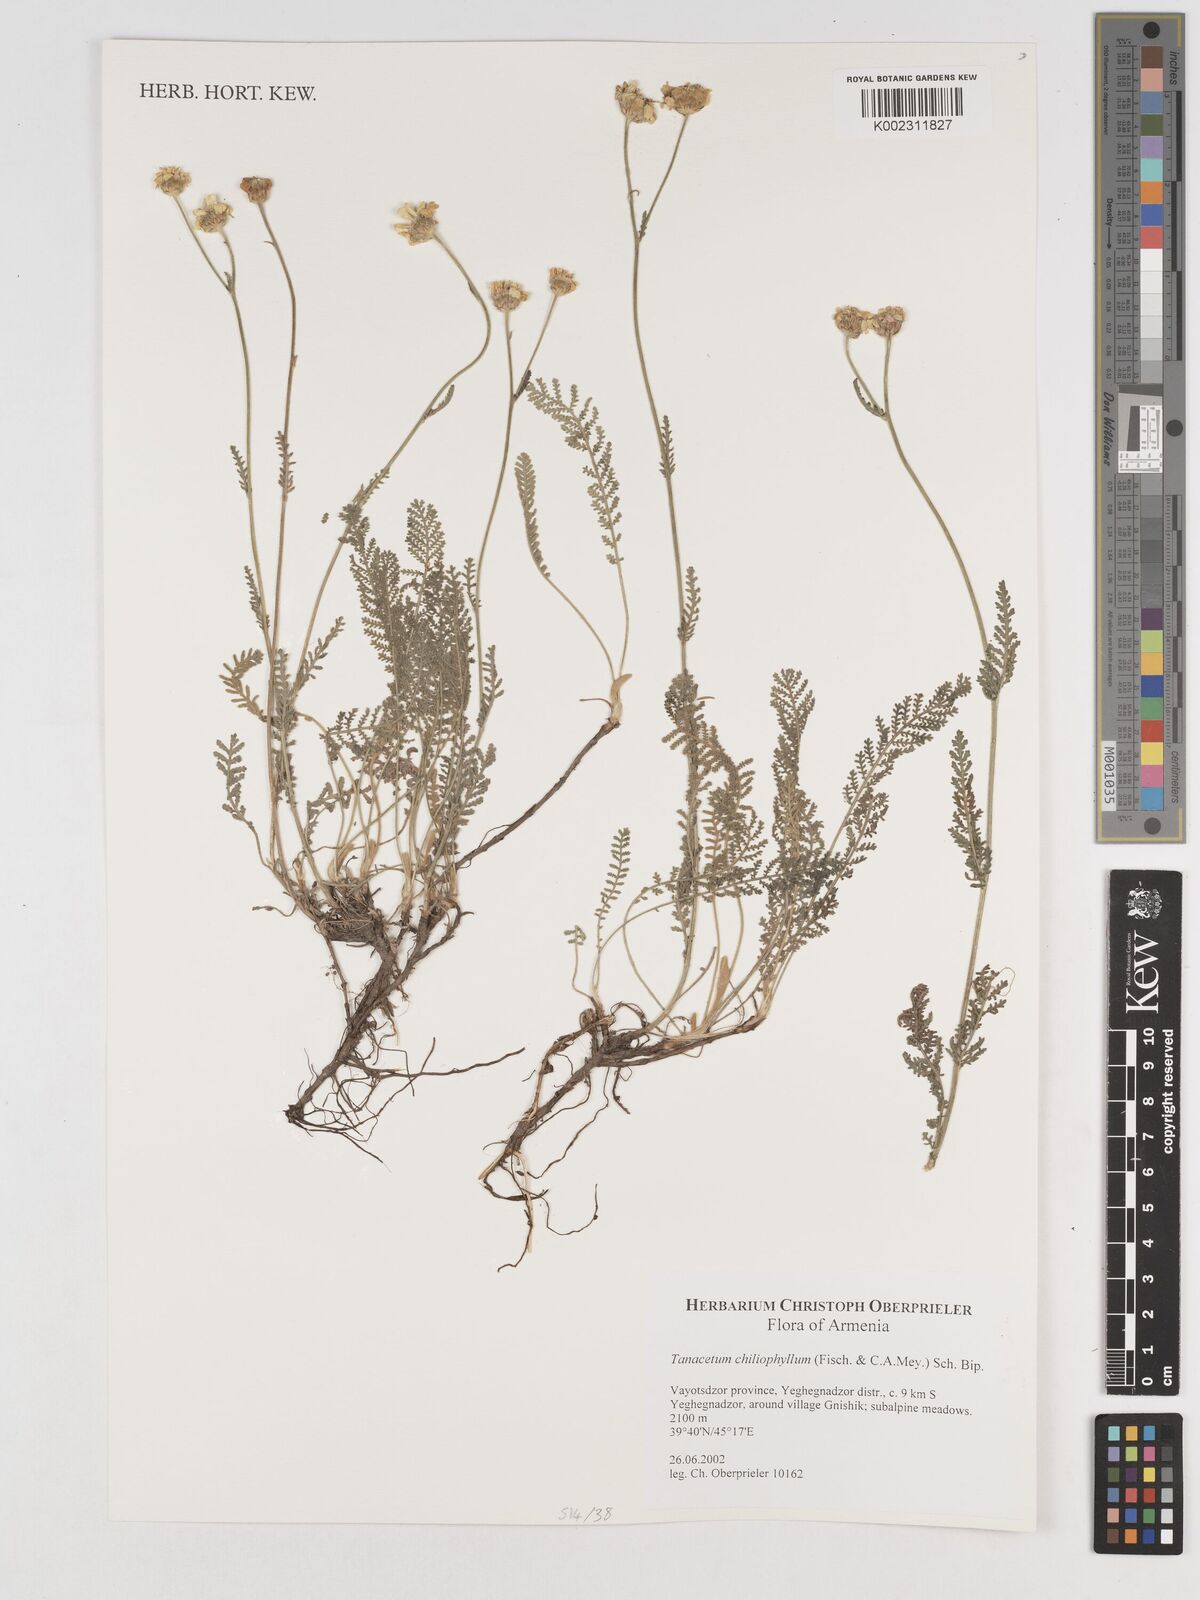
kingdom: Plantae
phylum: Tracheophyta
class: Magnoliopsida
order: Asterales
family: Asteraceae
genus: Tanacetum
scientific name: Tanacetum aureum
